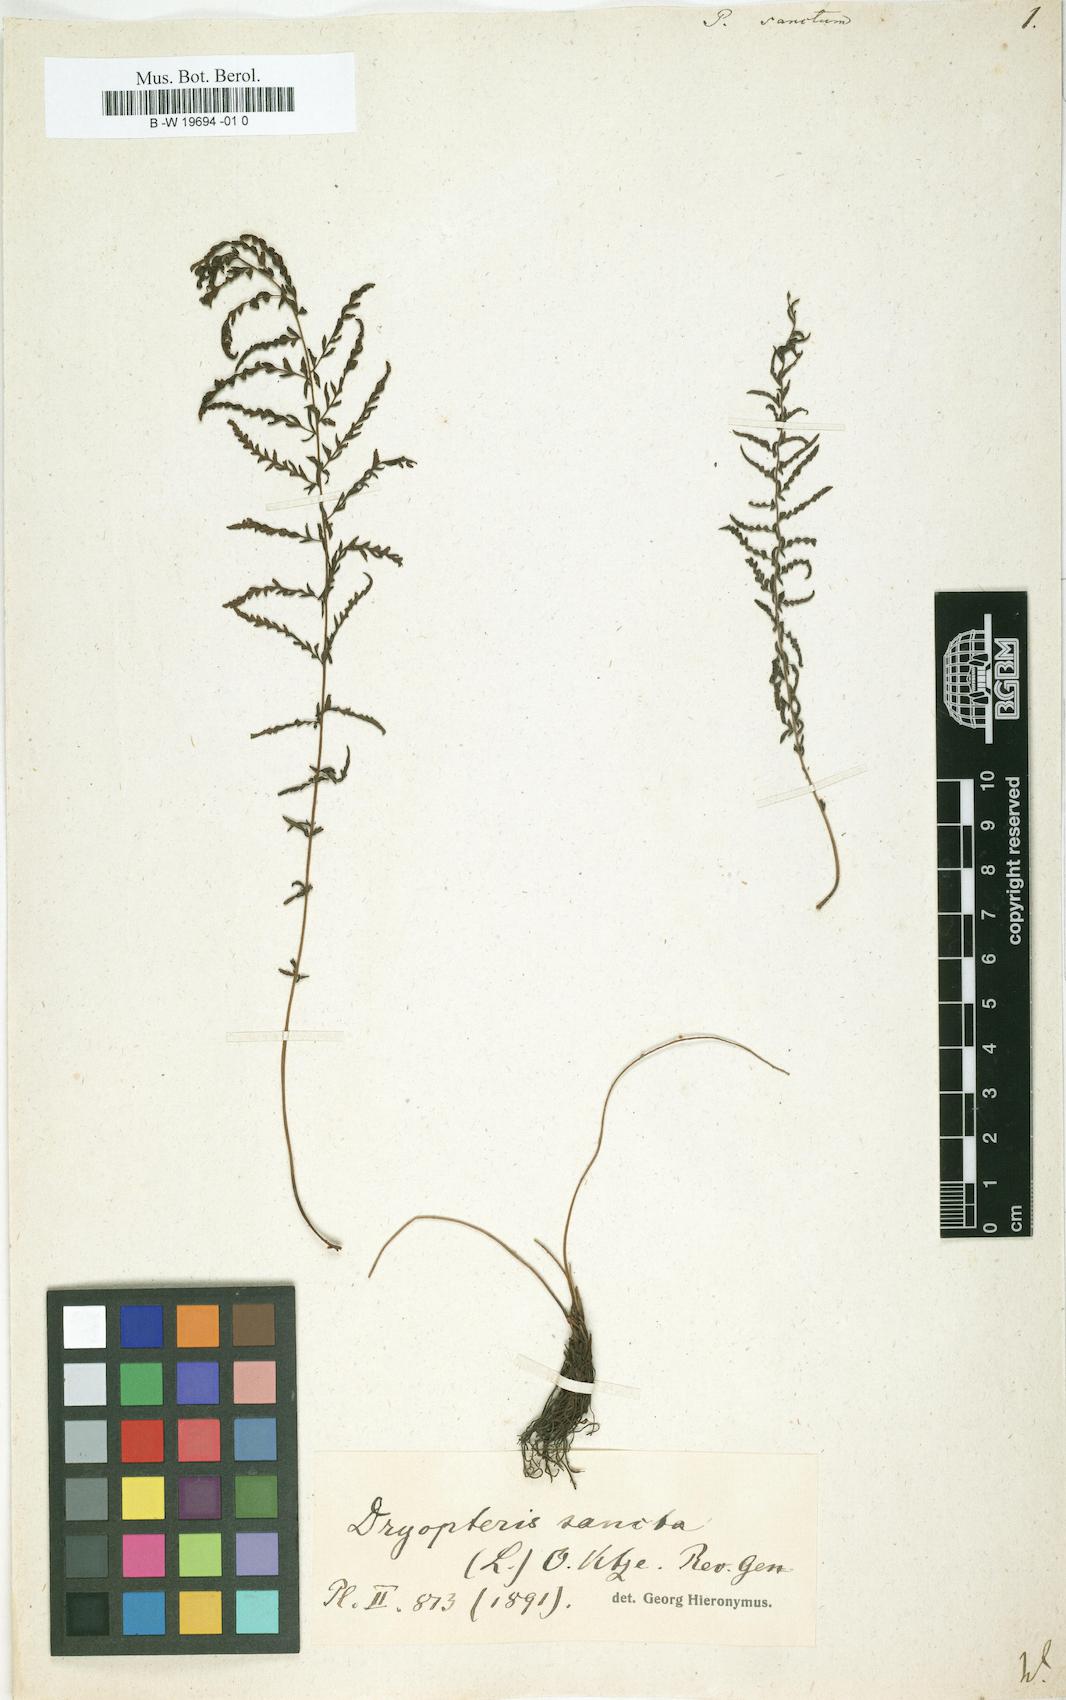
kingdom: Plantae
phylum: Tracheophyta
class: Polypodiopsida
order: Polypodiales
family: Thelypteridaceae
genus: Amauropelta
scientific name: Amauropelta cruciata
